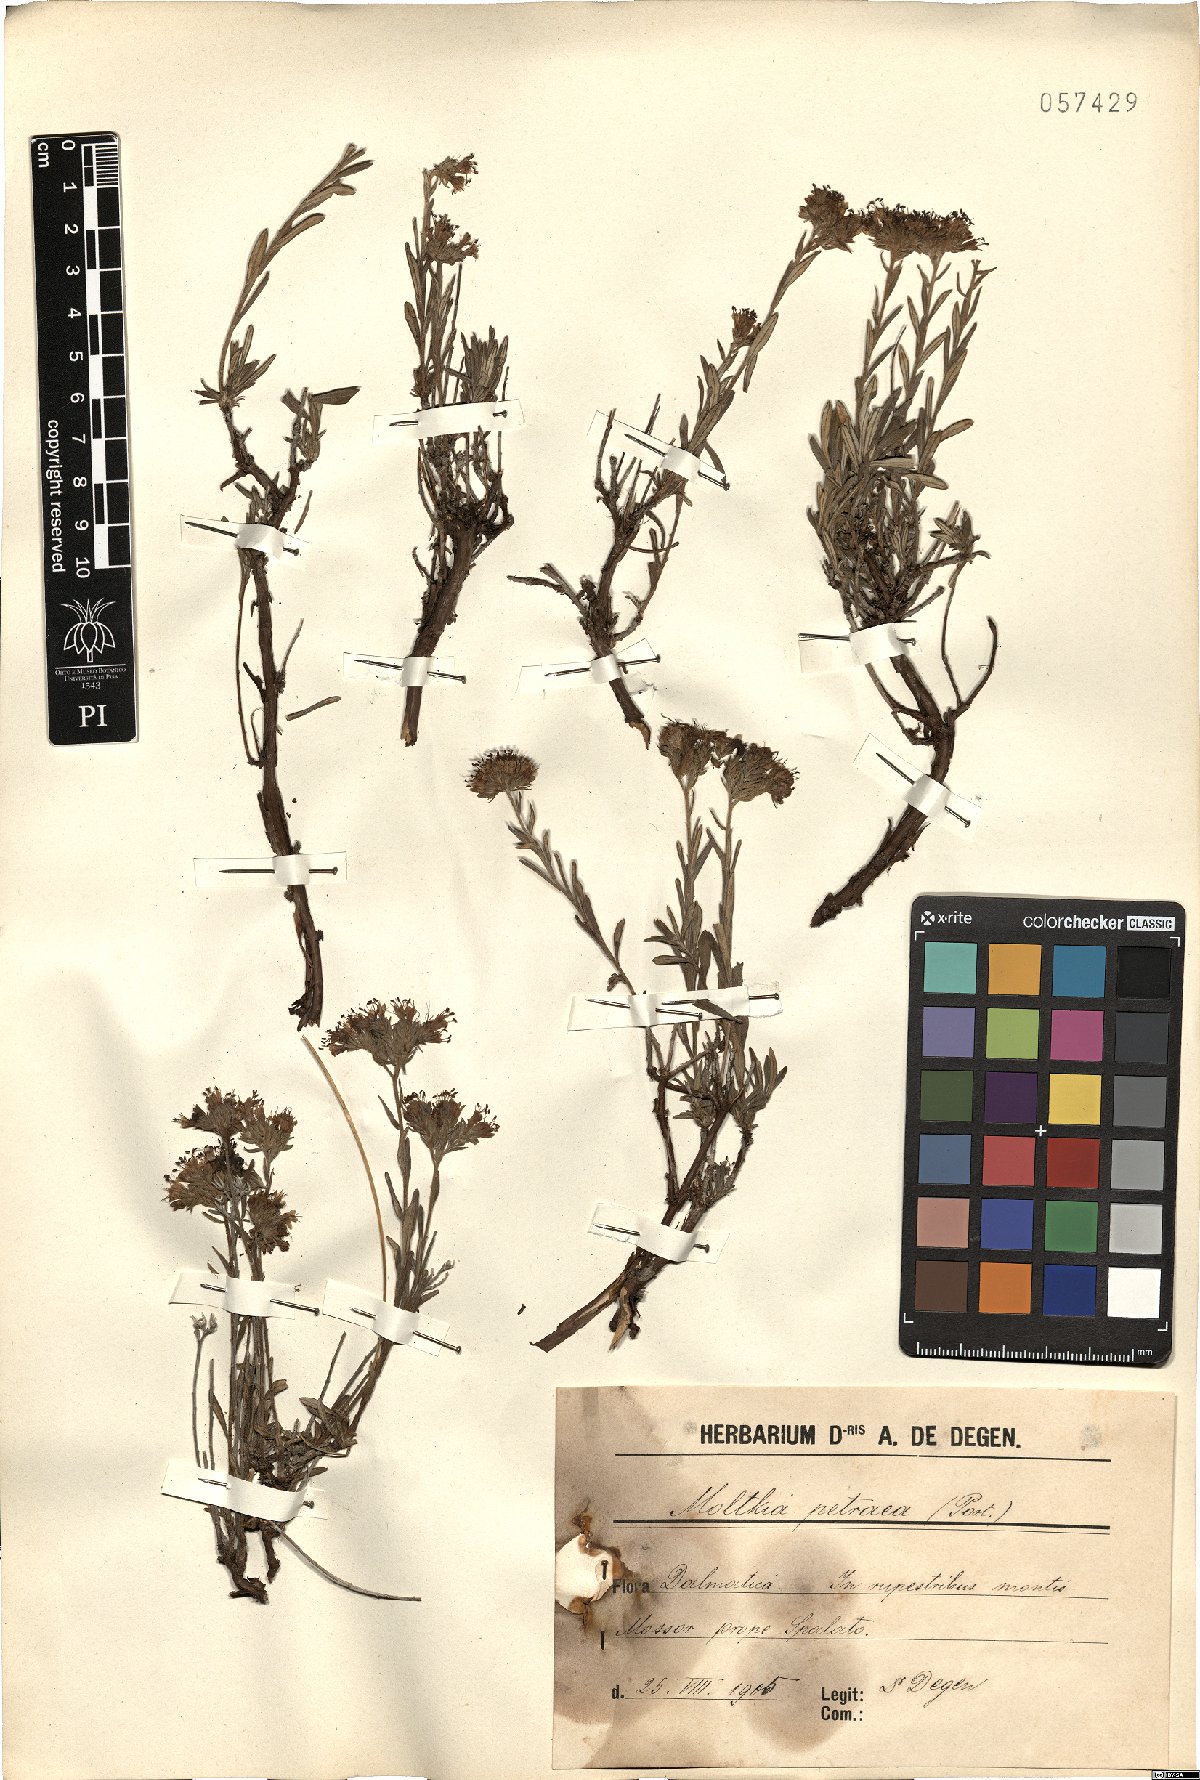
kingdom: Plantae
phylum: Tracheophyta
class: Magnoliopsida
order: Boraginales
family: Boraginaceae
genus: Moltkia
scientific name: Moltkia petraea
